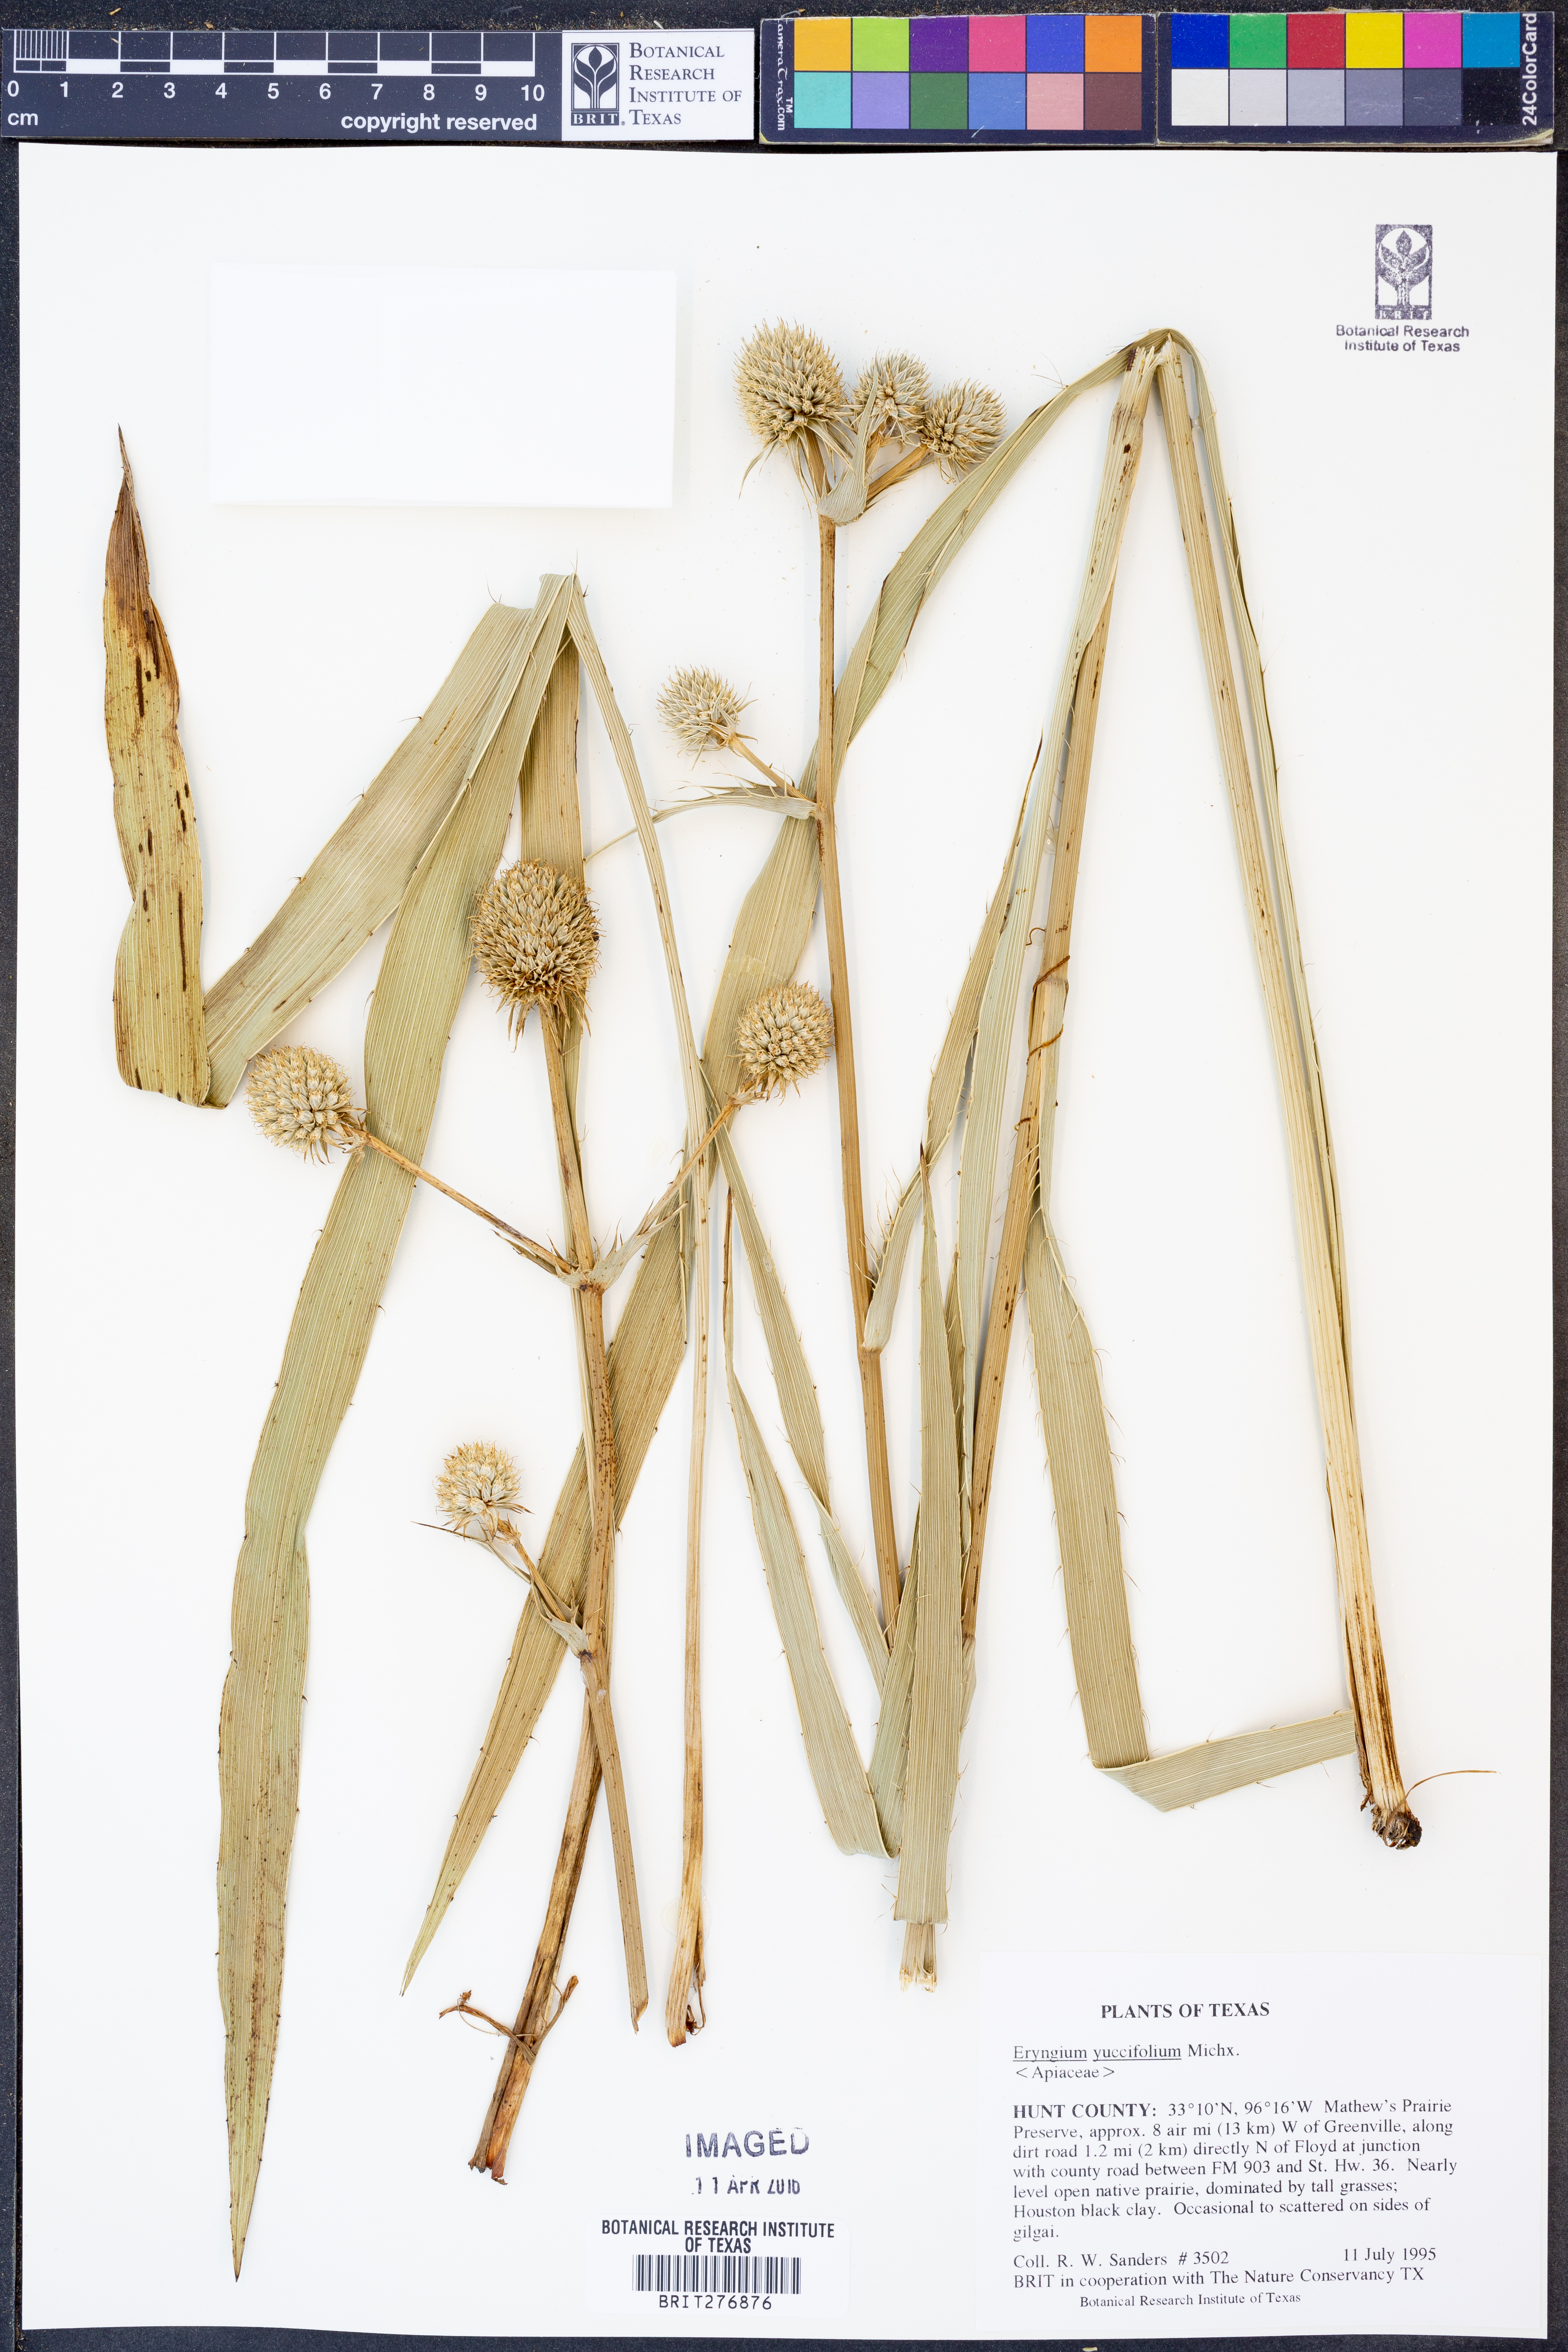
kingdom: Plantae
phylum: Tracheophyta
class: Magnoliopsida
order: Apiales
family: Apiaceae
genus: Eryngium
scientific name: Eryngium yuccifolium
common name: Button eryngo
